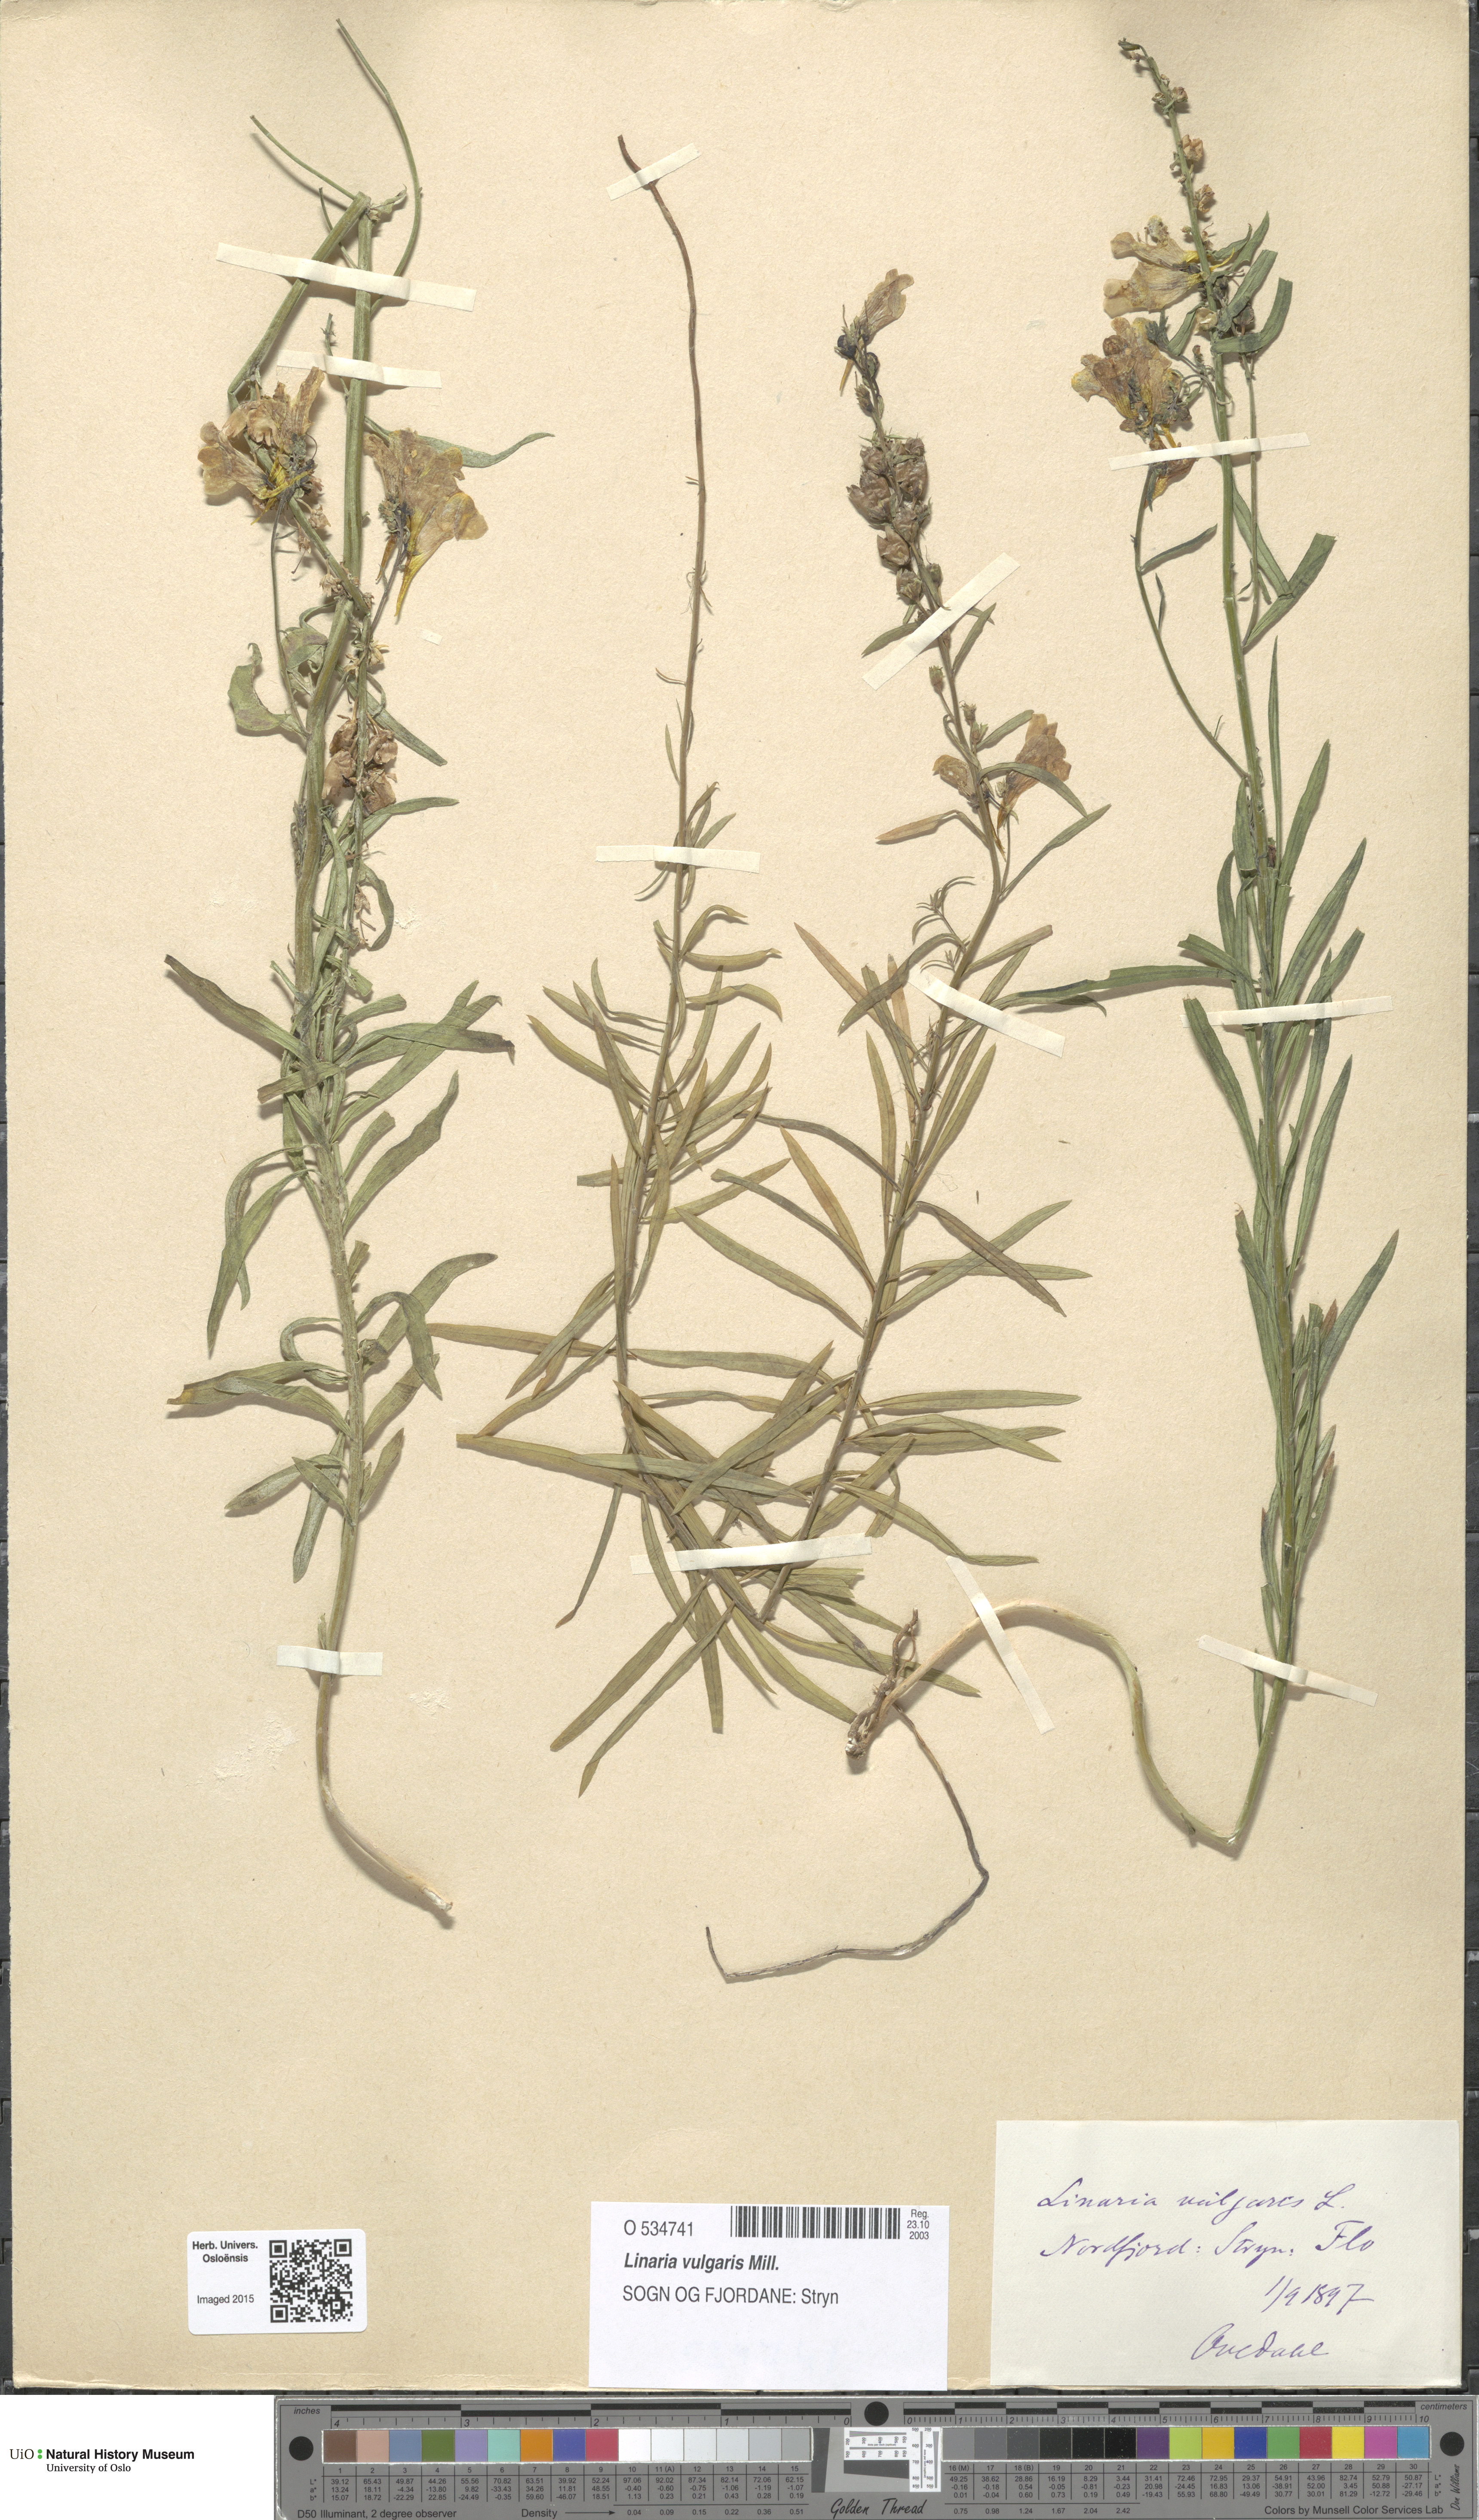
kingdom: Plantae
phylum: Tracheophyta
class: Magnoliopsida
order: Lamiales
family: Plantaginaceae
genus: Linaria
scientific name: Linaria vulgaris
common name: Butter and eggs
